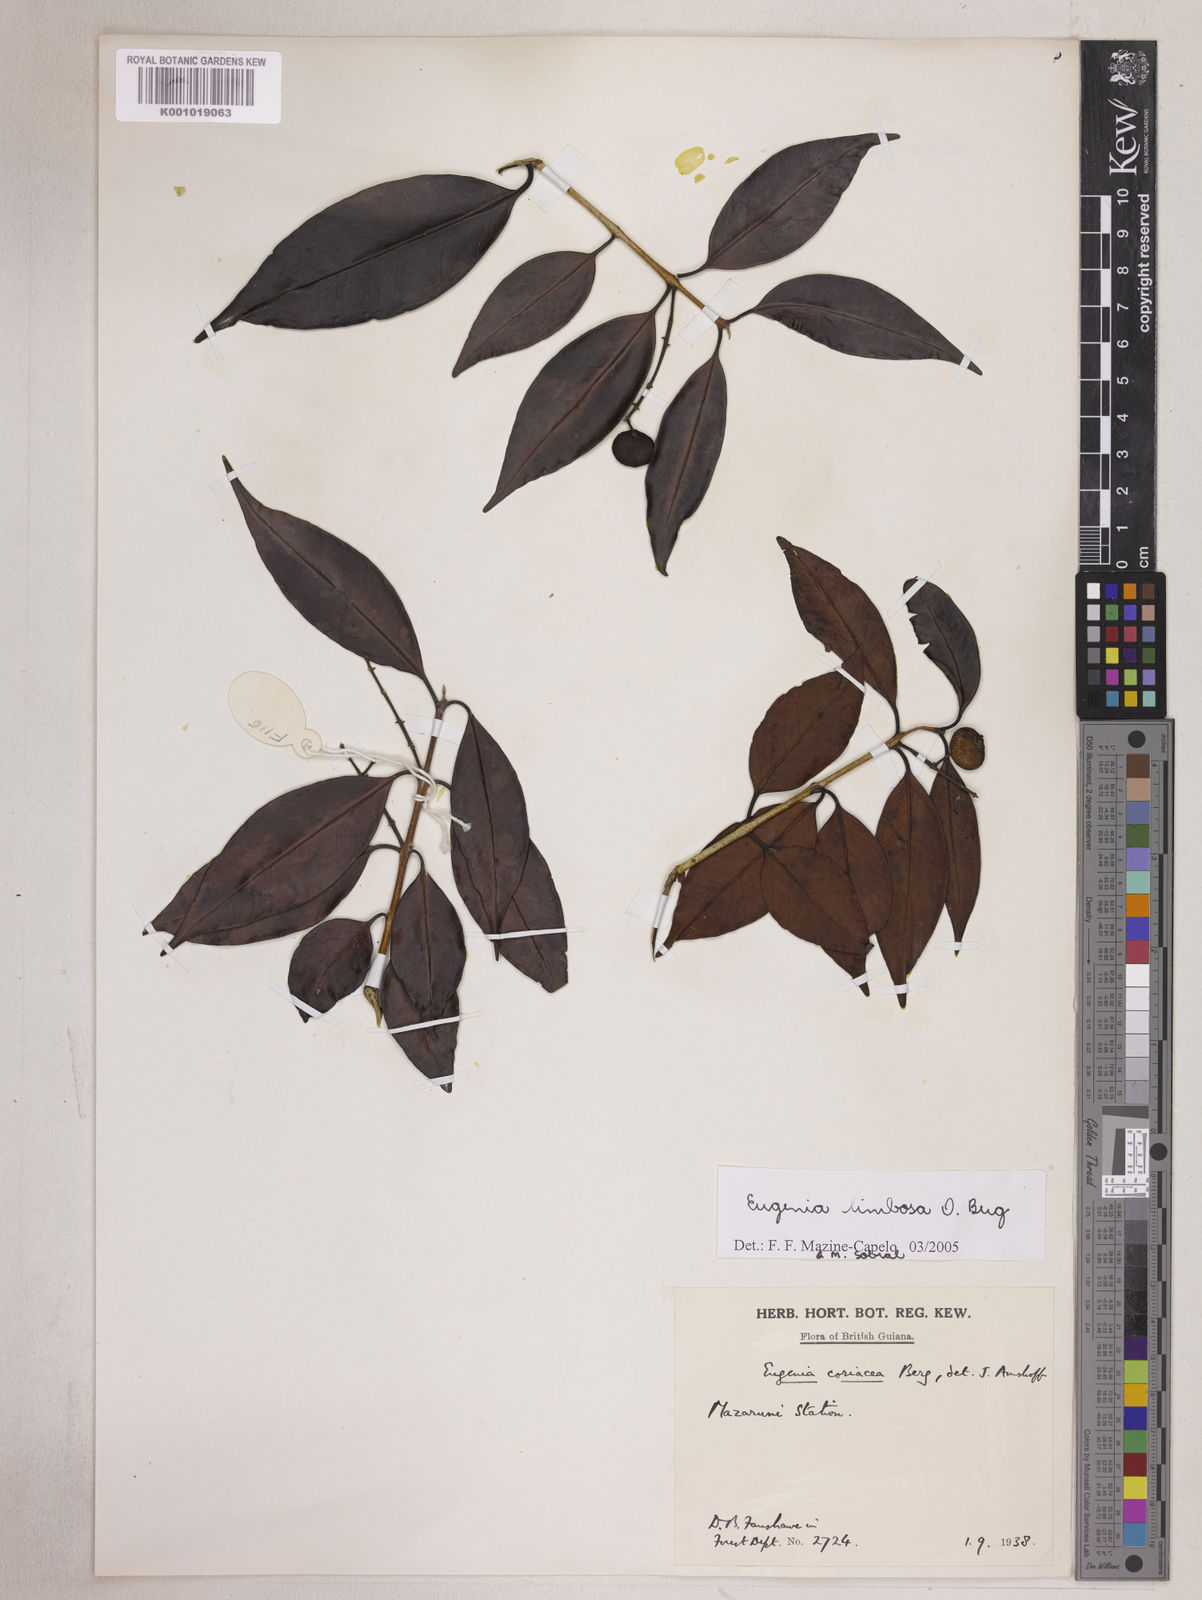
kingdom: Plantae
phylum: Tracheophyta
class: Magnoliopsida
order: Myrtales
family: Myrtaceae
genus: Eugenia
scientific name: Eugenia limbosa
